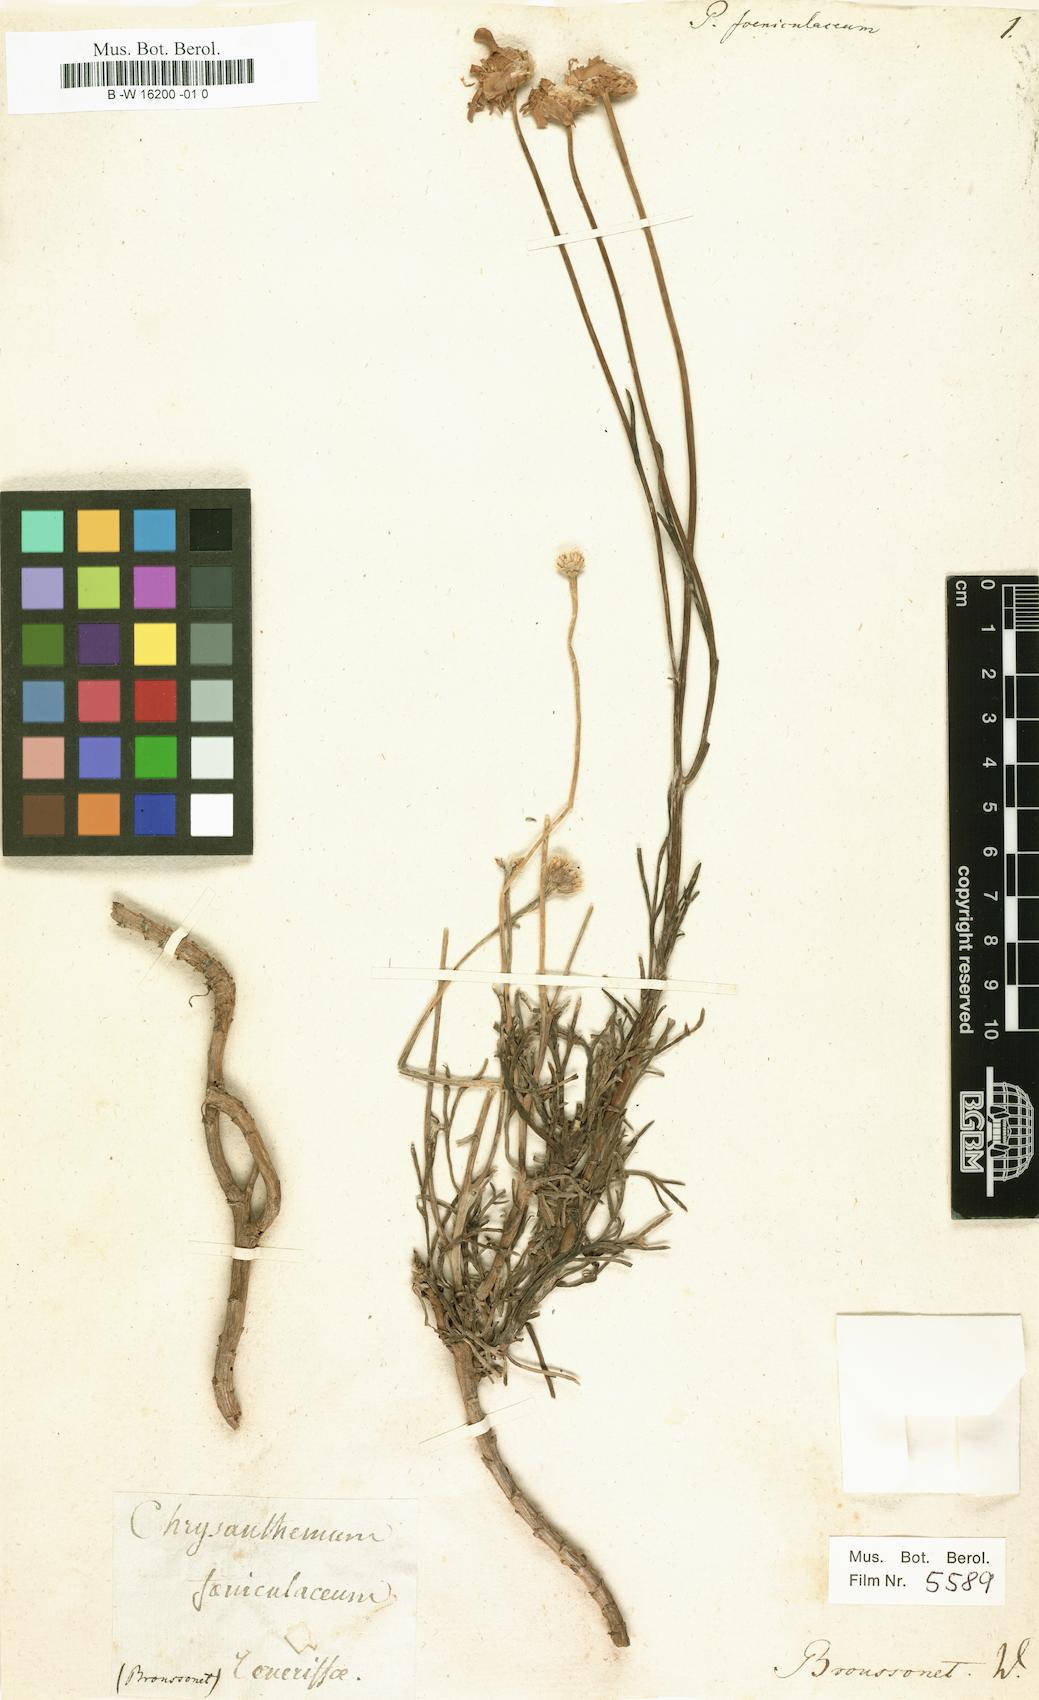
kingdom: Plantae
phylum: Tracheophyta
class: Magnoliopsida
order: Asterales
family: Asteraceae
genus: Argyranthemum
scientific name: Argyranthemum foeniculaceum
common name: Canary island marguerite
